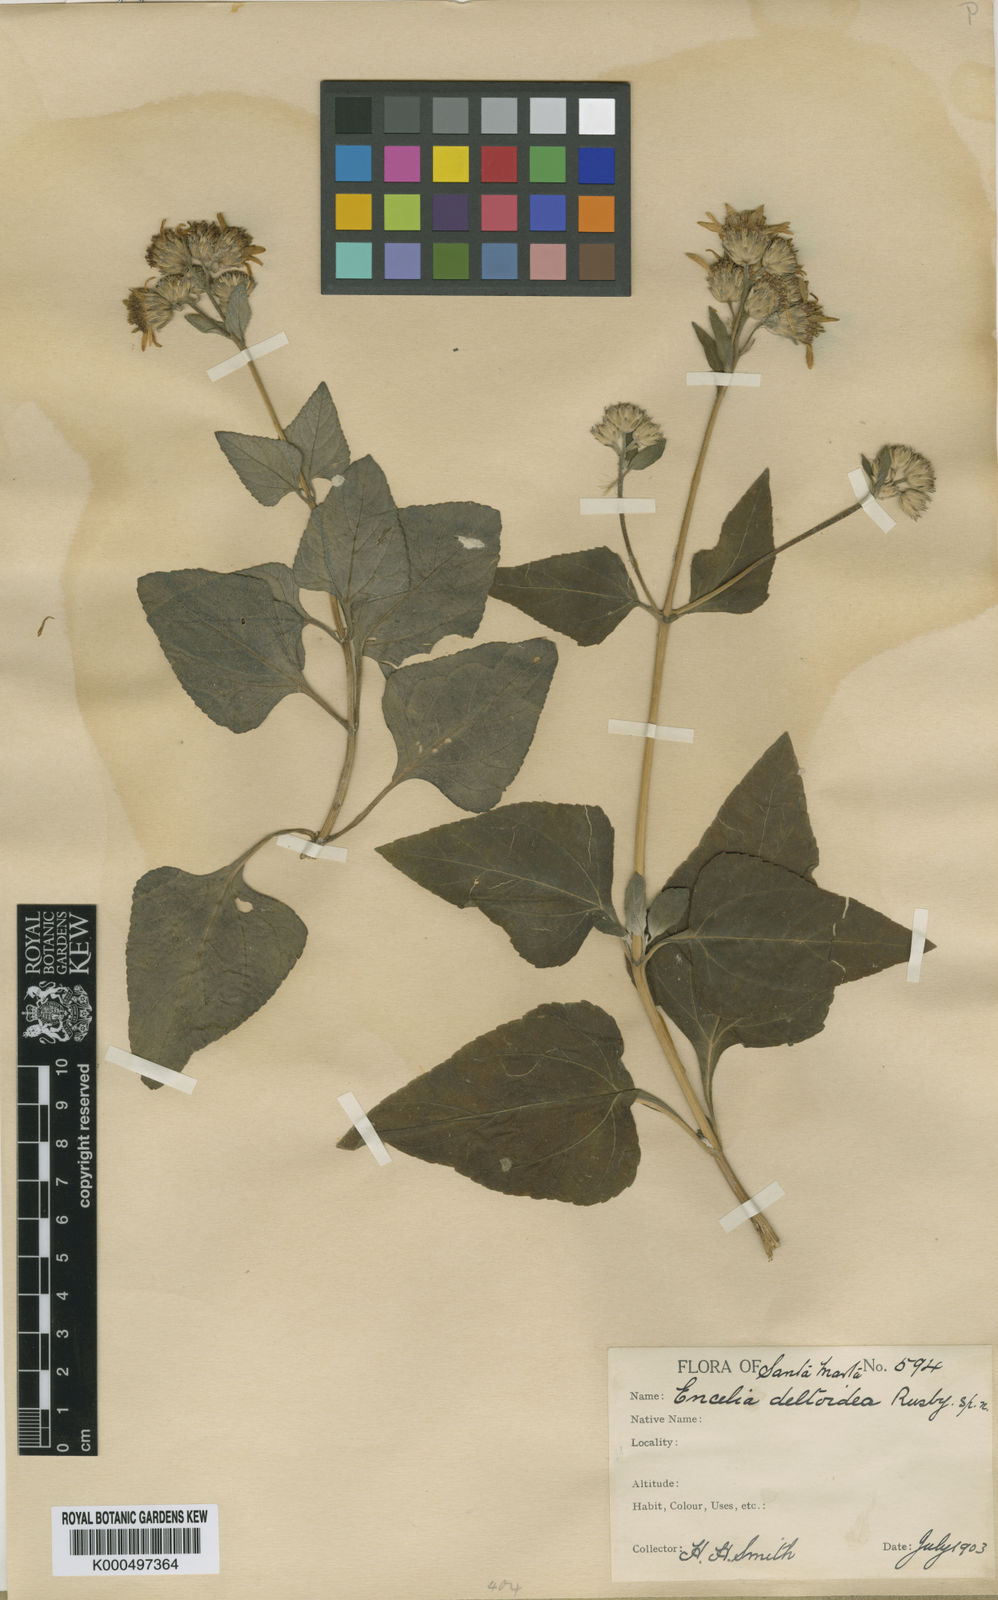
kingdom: Plantae
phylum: Tracheophyta
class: Magnoliopsida
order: Asterales
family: Asteraceae
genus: Simsia
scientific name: Simsia fruticulosa
